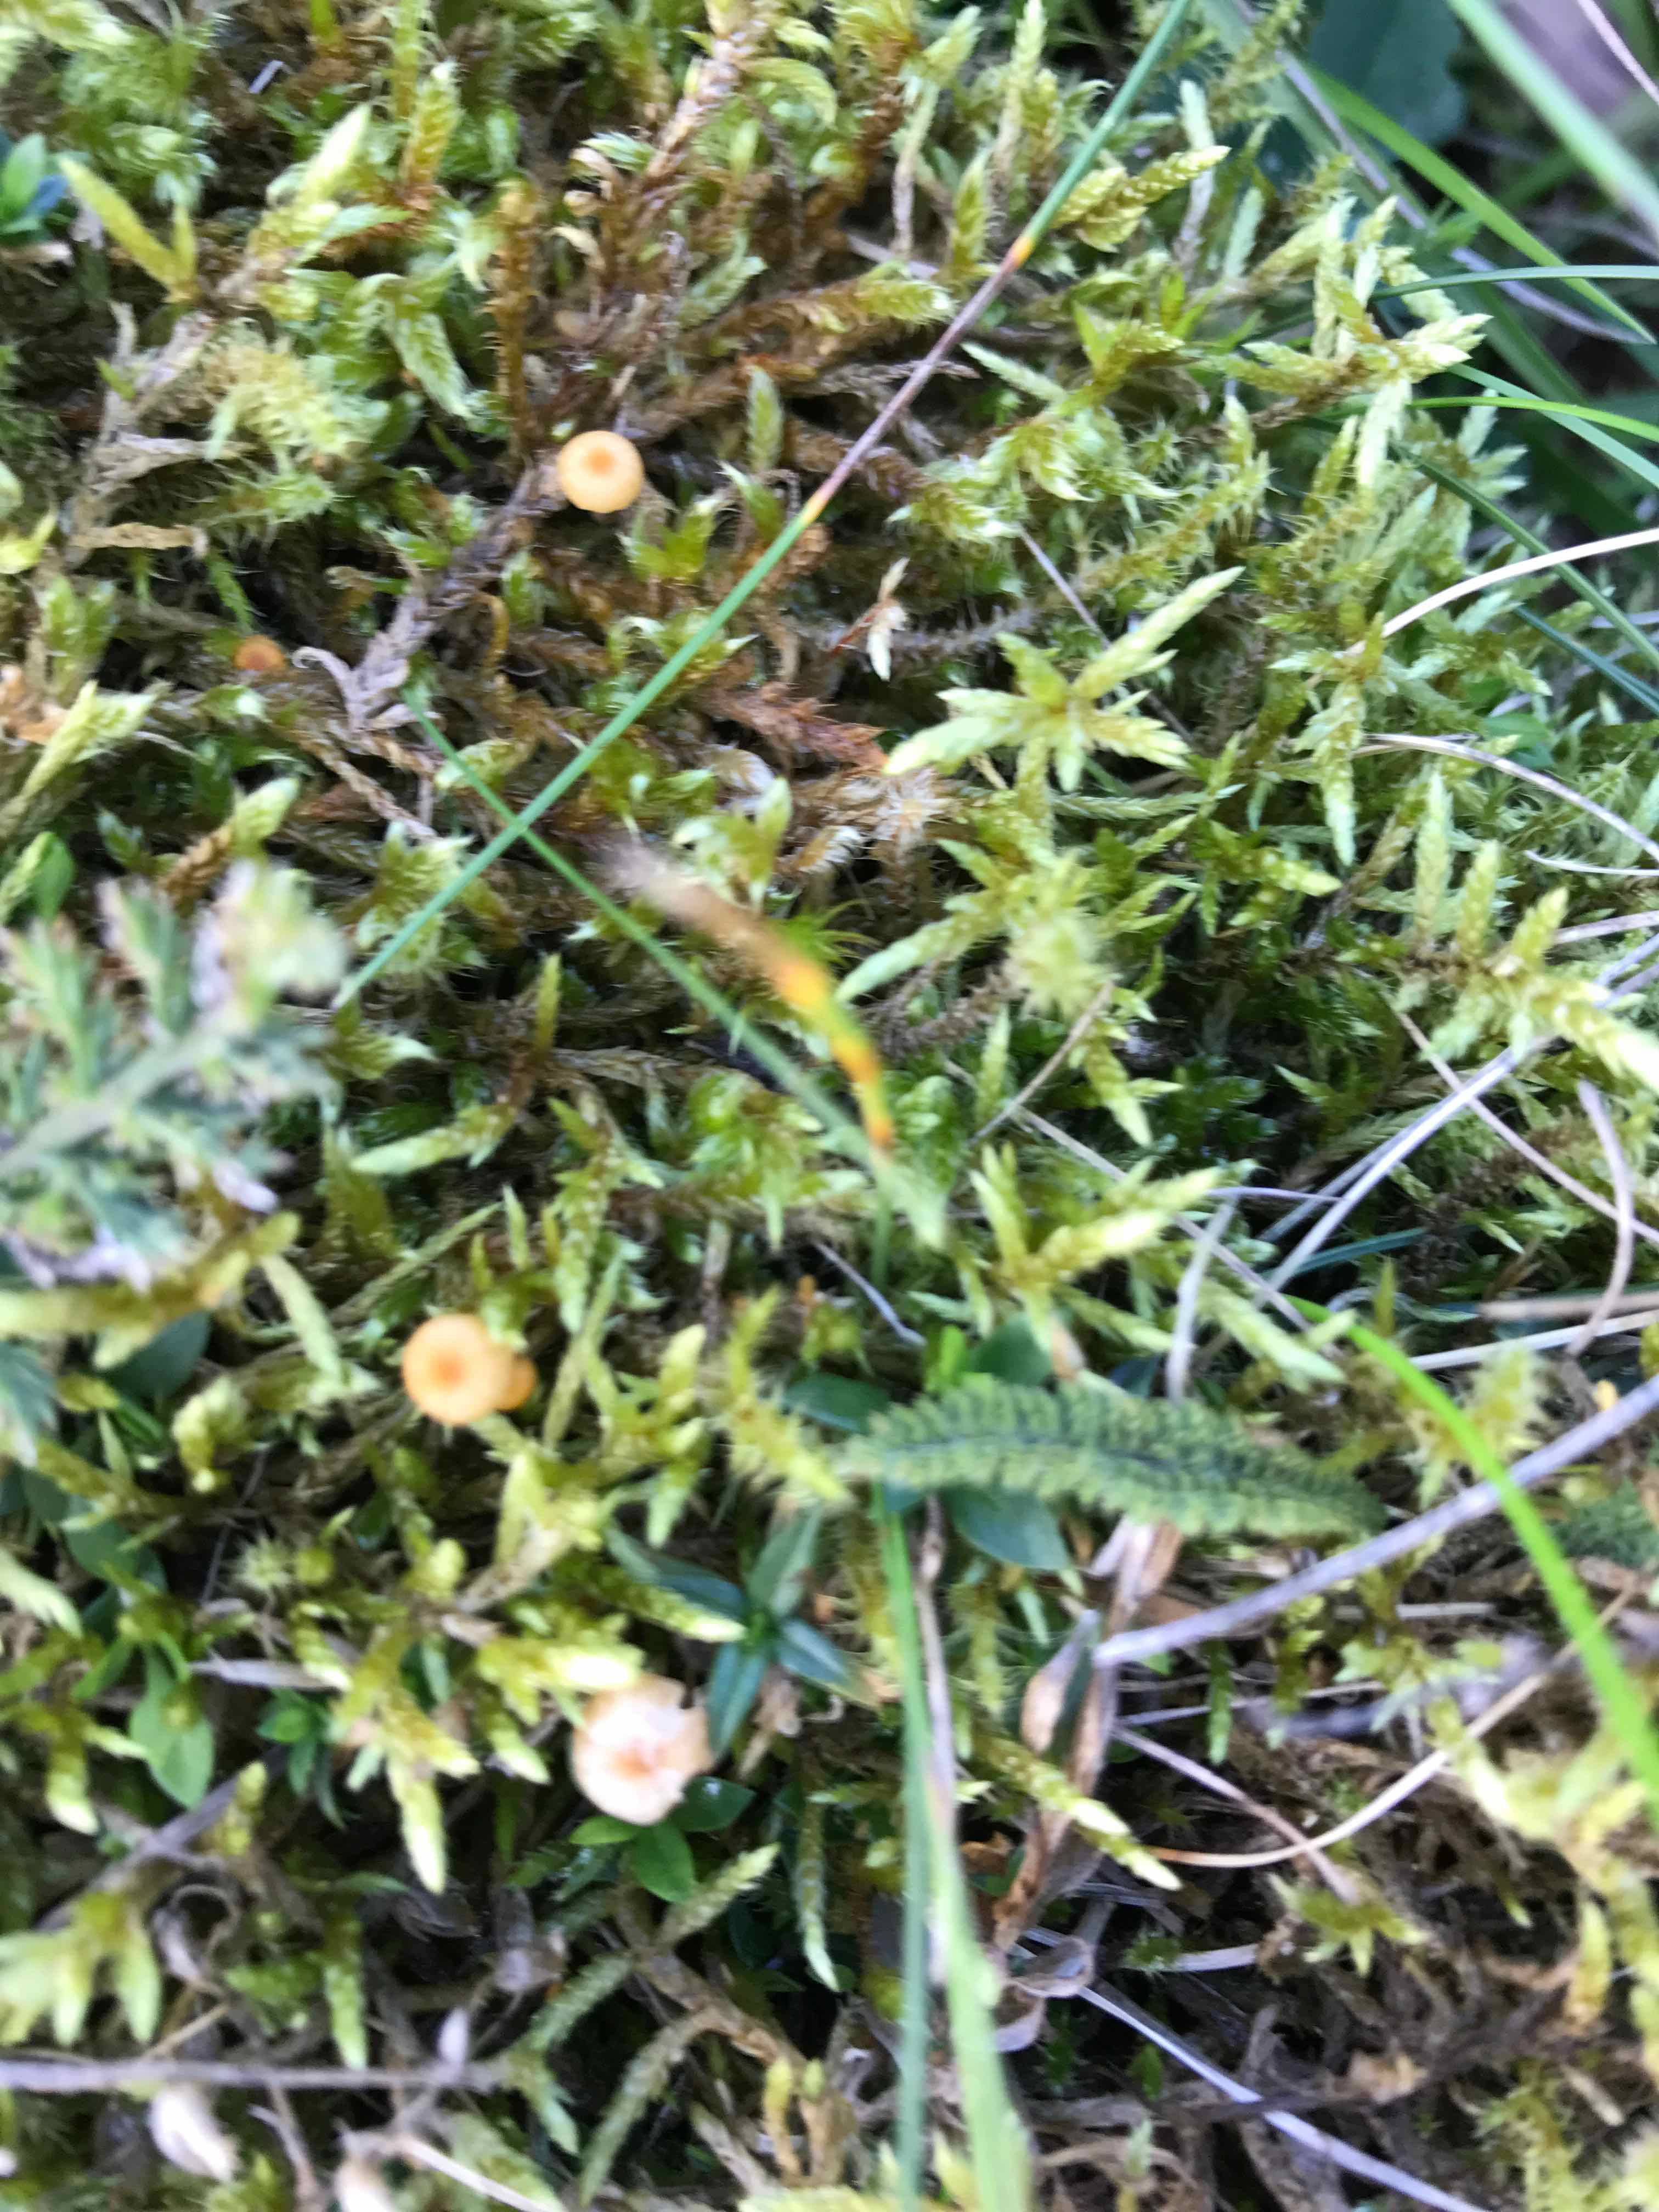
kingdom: Fungi
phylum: Basidiomycota
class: Agaricomycetes
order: Hymenochaetales
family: Rickenellaceae
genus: Rickenella
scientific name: Rickenella fibula
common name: orange mosnavlehat
